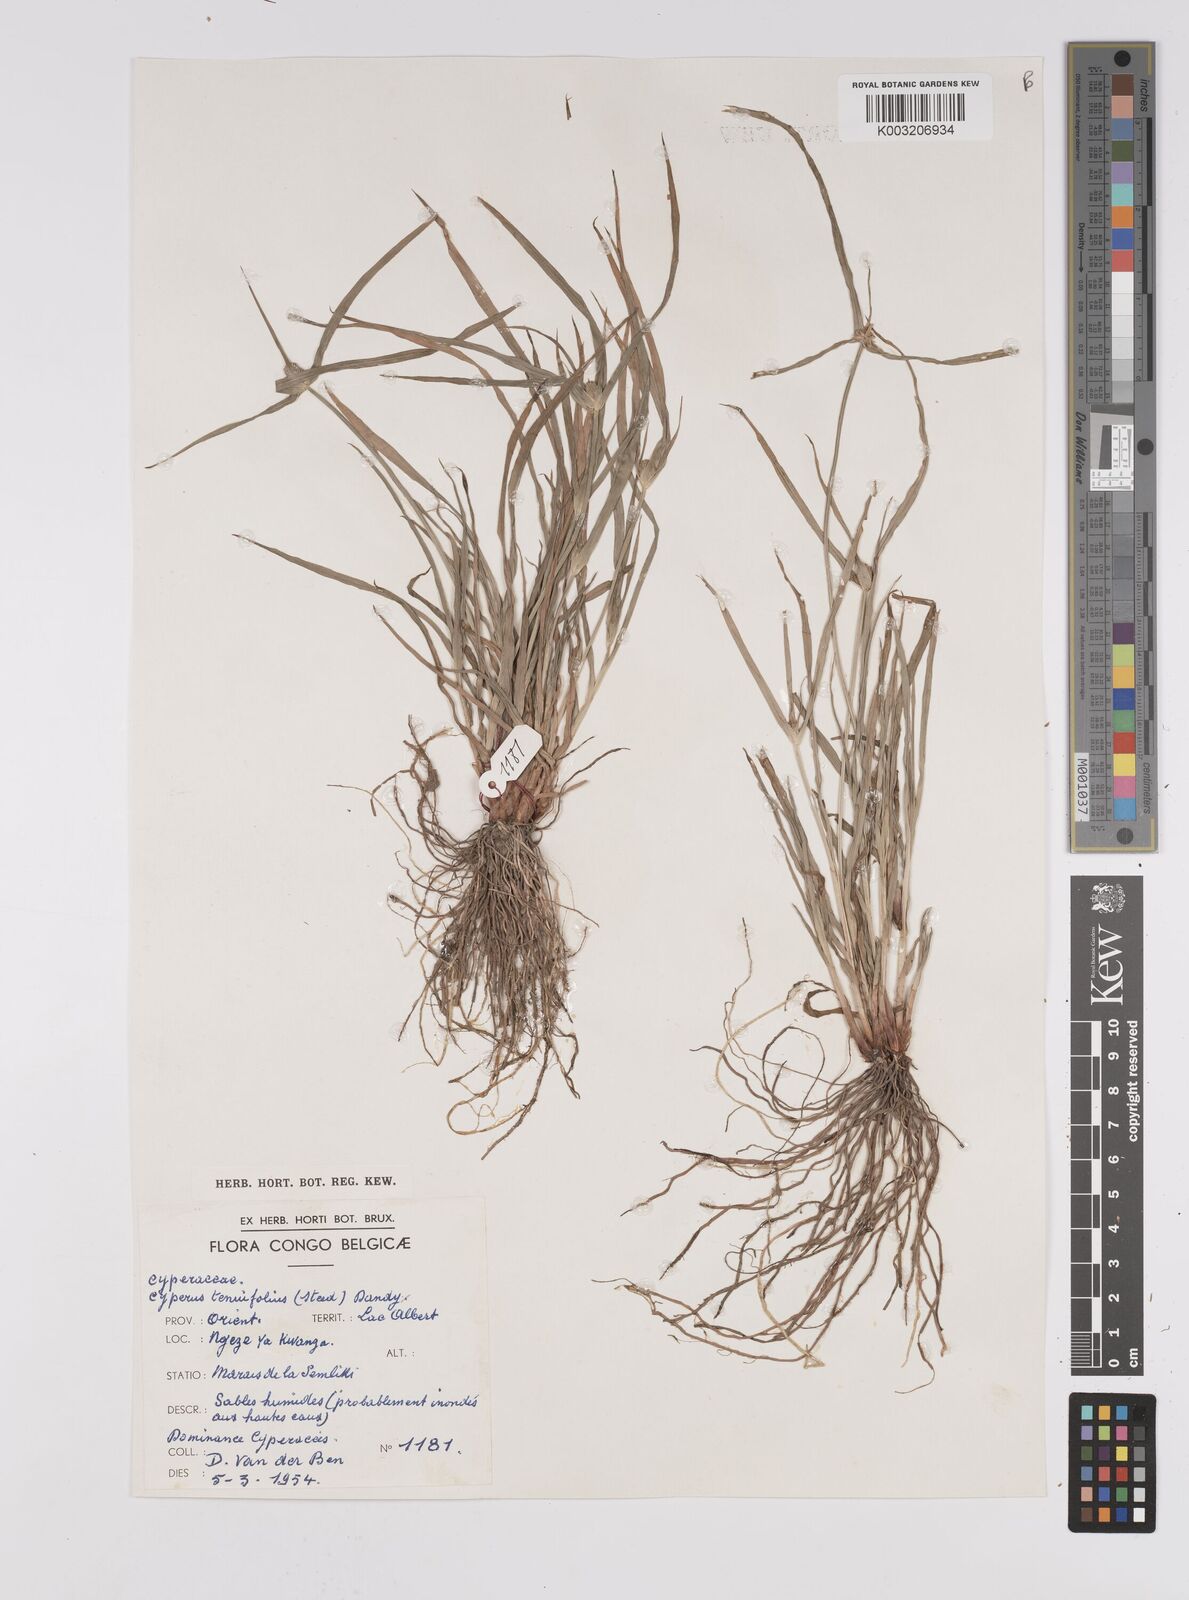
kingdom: Plantae
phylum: Tracheophyta
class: Liliopsida
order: Poales
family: Cyperaceae
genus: Cyperus
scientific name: Cyperus hortensis
